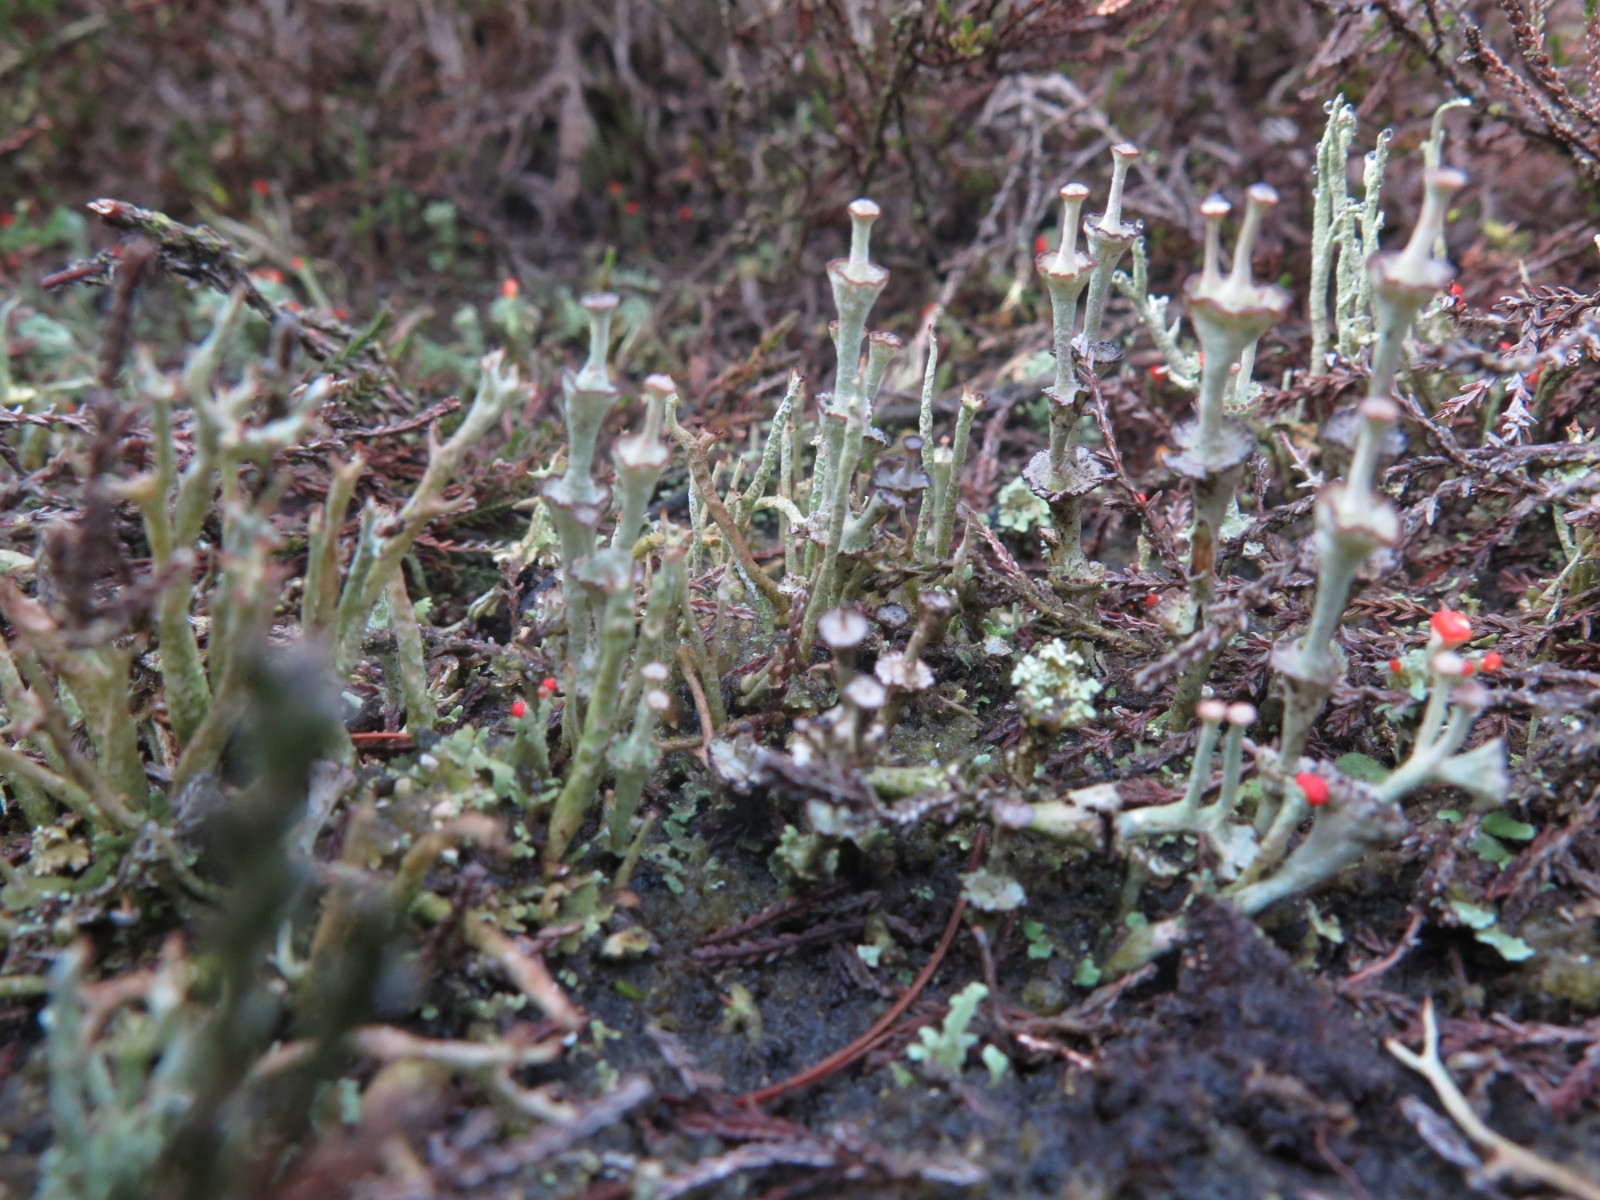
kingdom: Fungi
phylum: Ascomycota
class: Lecanoromycetes
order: Lecanorales
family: Cladoniaceae
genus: Cladonia
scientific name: Cladonia cervicornis
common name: etage-bægerlav
